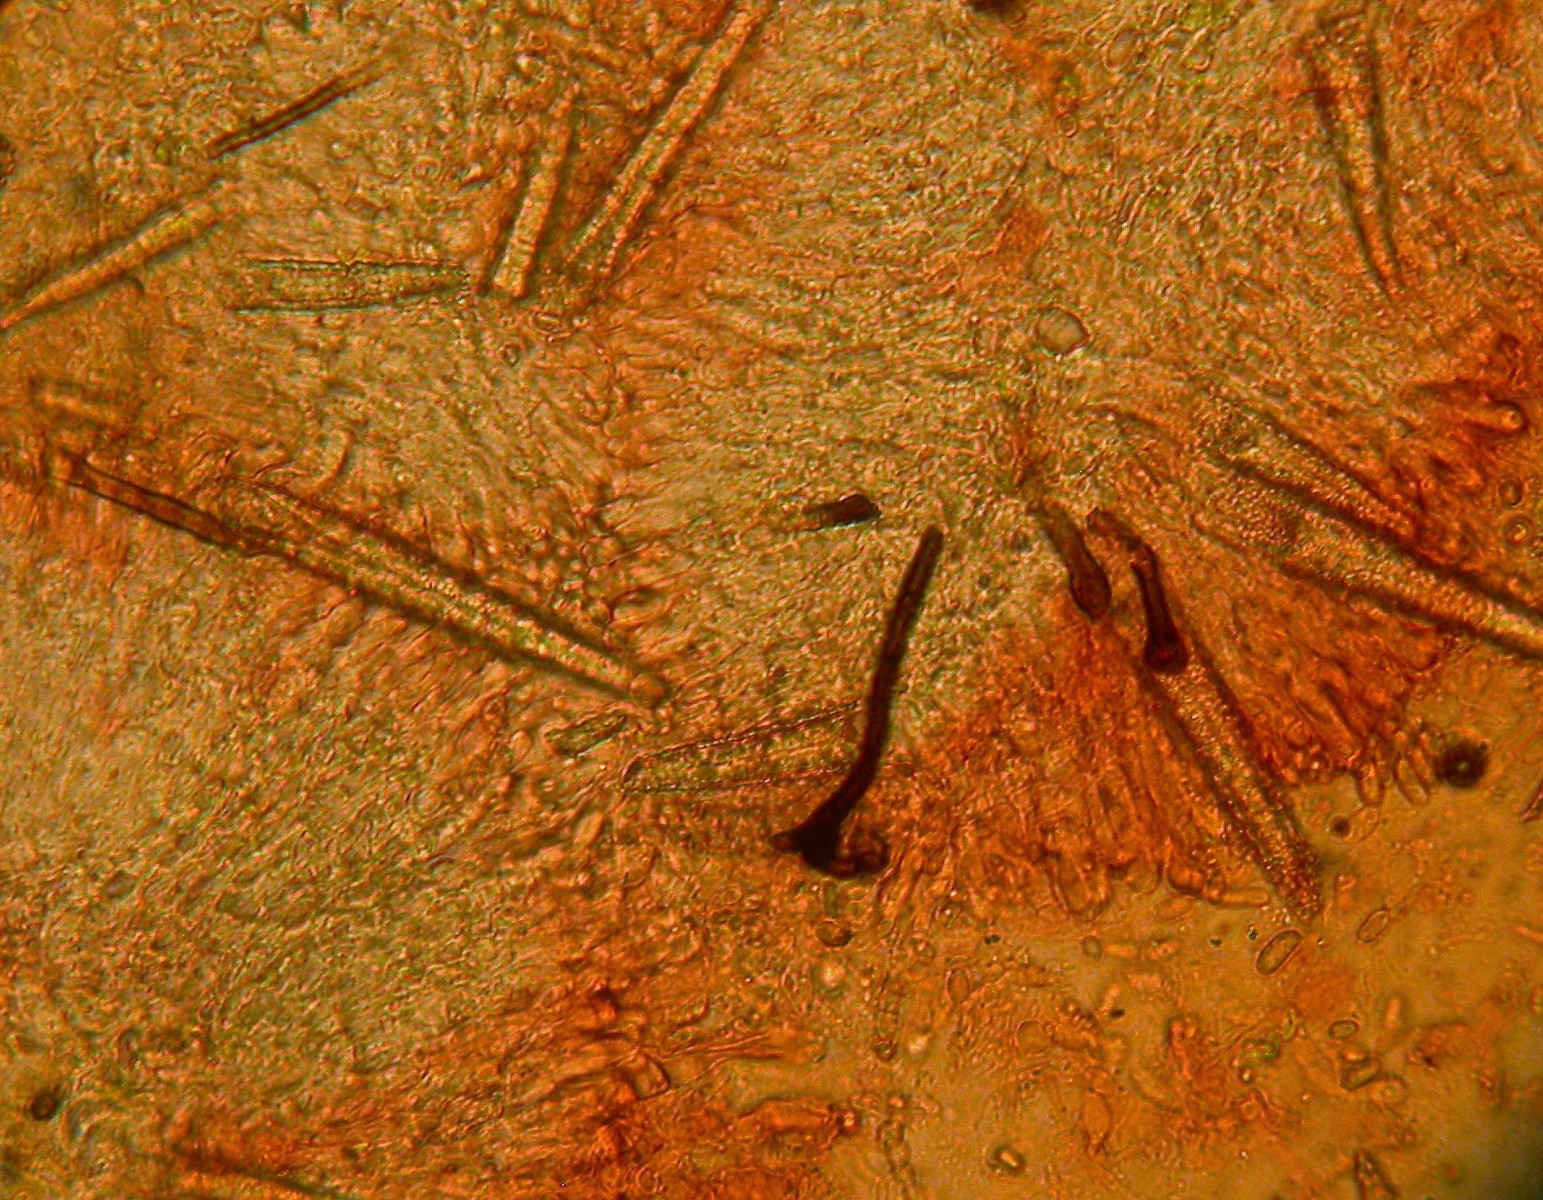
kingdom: Fungi
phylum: Basidiomycota
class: Agaricomycetes
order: Hymenochaetales
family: Rickenellaceae
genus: Peniophorella
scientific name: Peniophorella pubera
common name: dunet kalkskind
